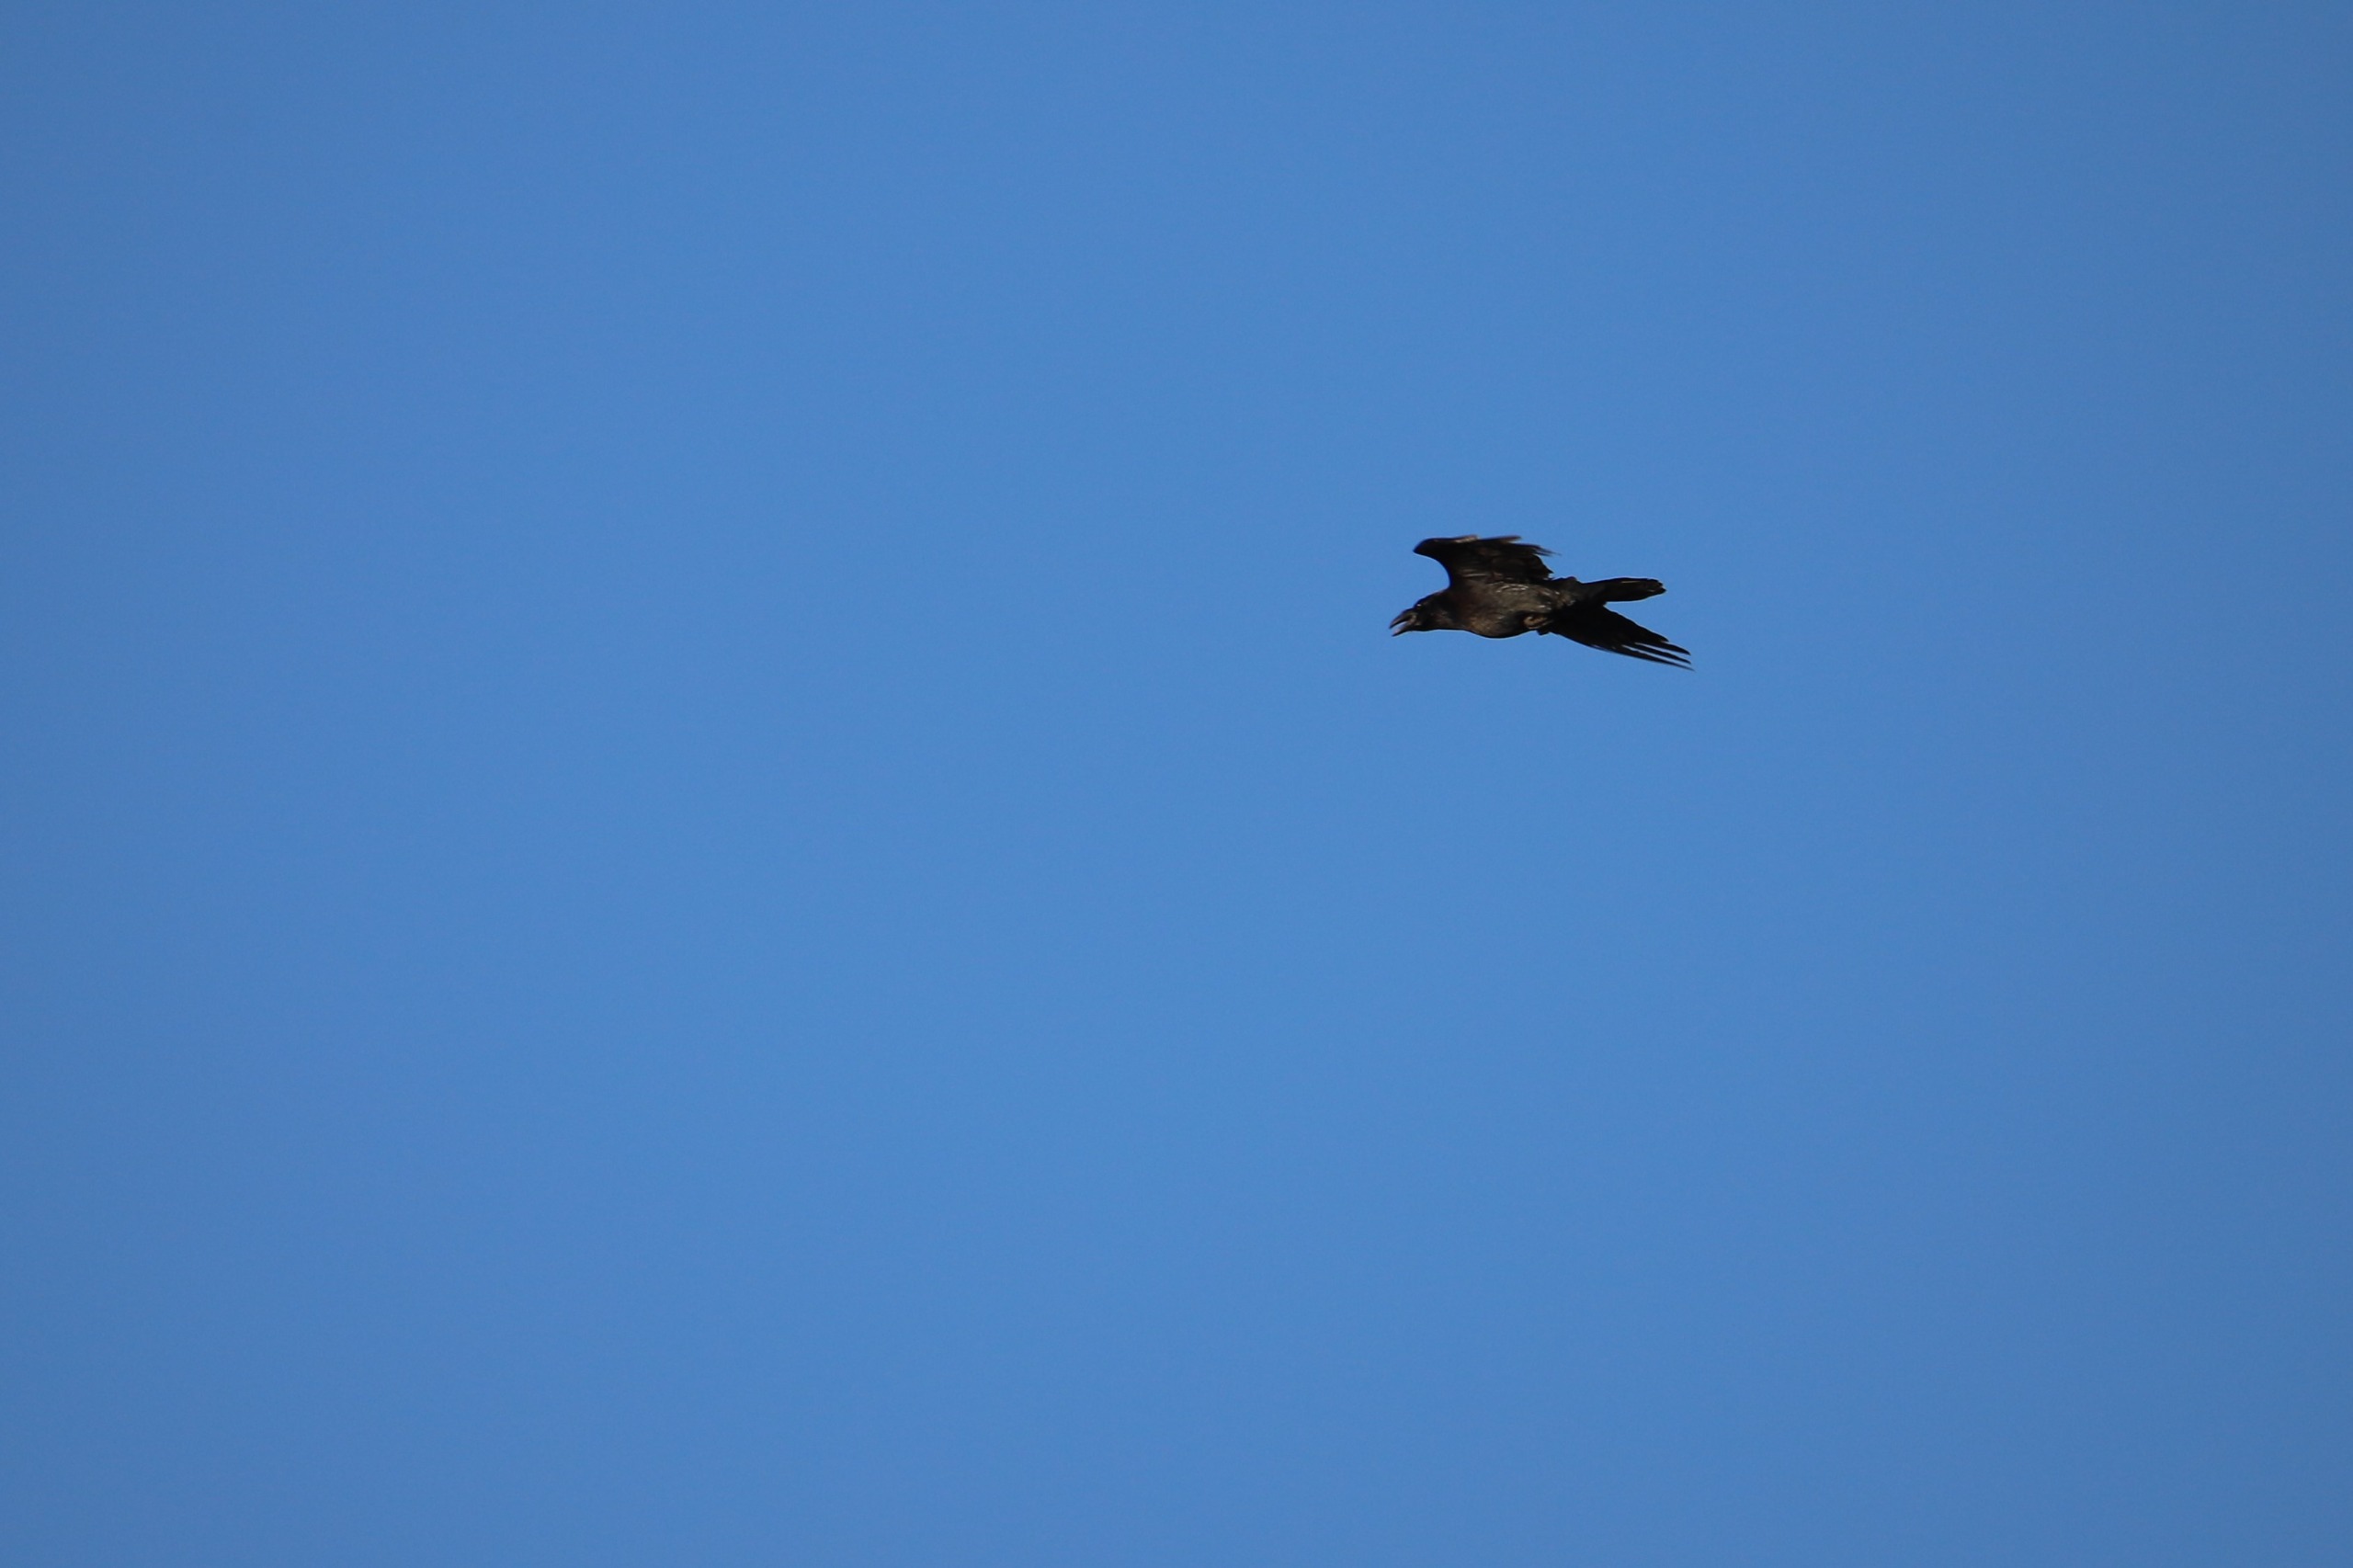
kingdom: Animalia
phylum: Chordata
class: Aves
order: Passeriformes
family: Corvidae
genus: Corvus
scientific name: Corvus corax
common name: Ravn
